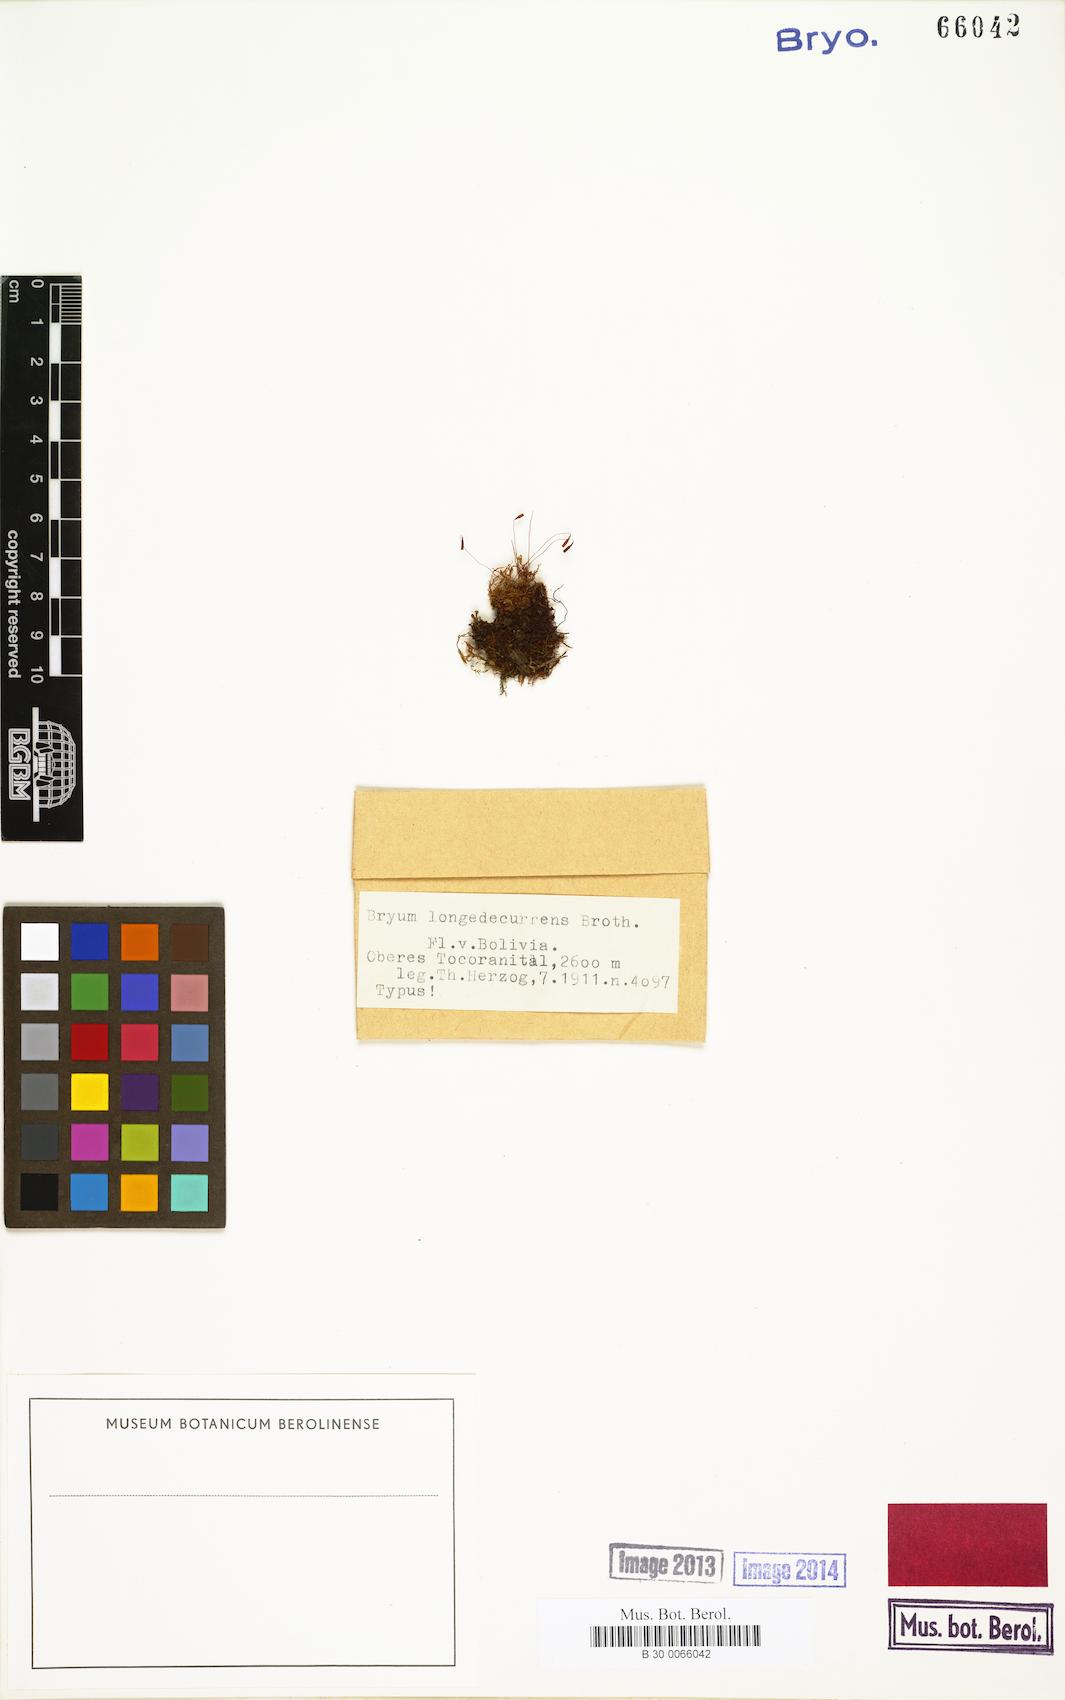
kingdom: Plantae
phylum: Bryophyta
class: Bryopsida
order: Bryales
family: Bryaceae
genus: Rosulabryum
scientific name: Rosulabryum capillare
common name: Capillary thread-moss
